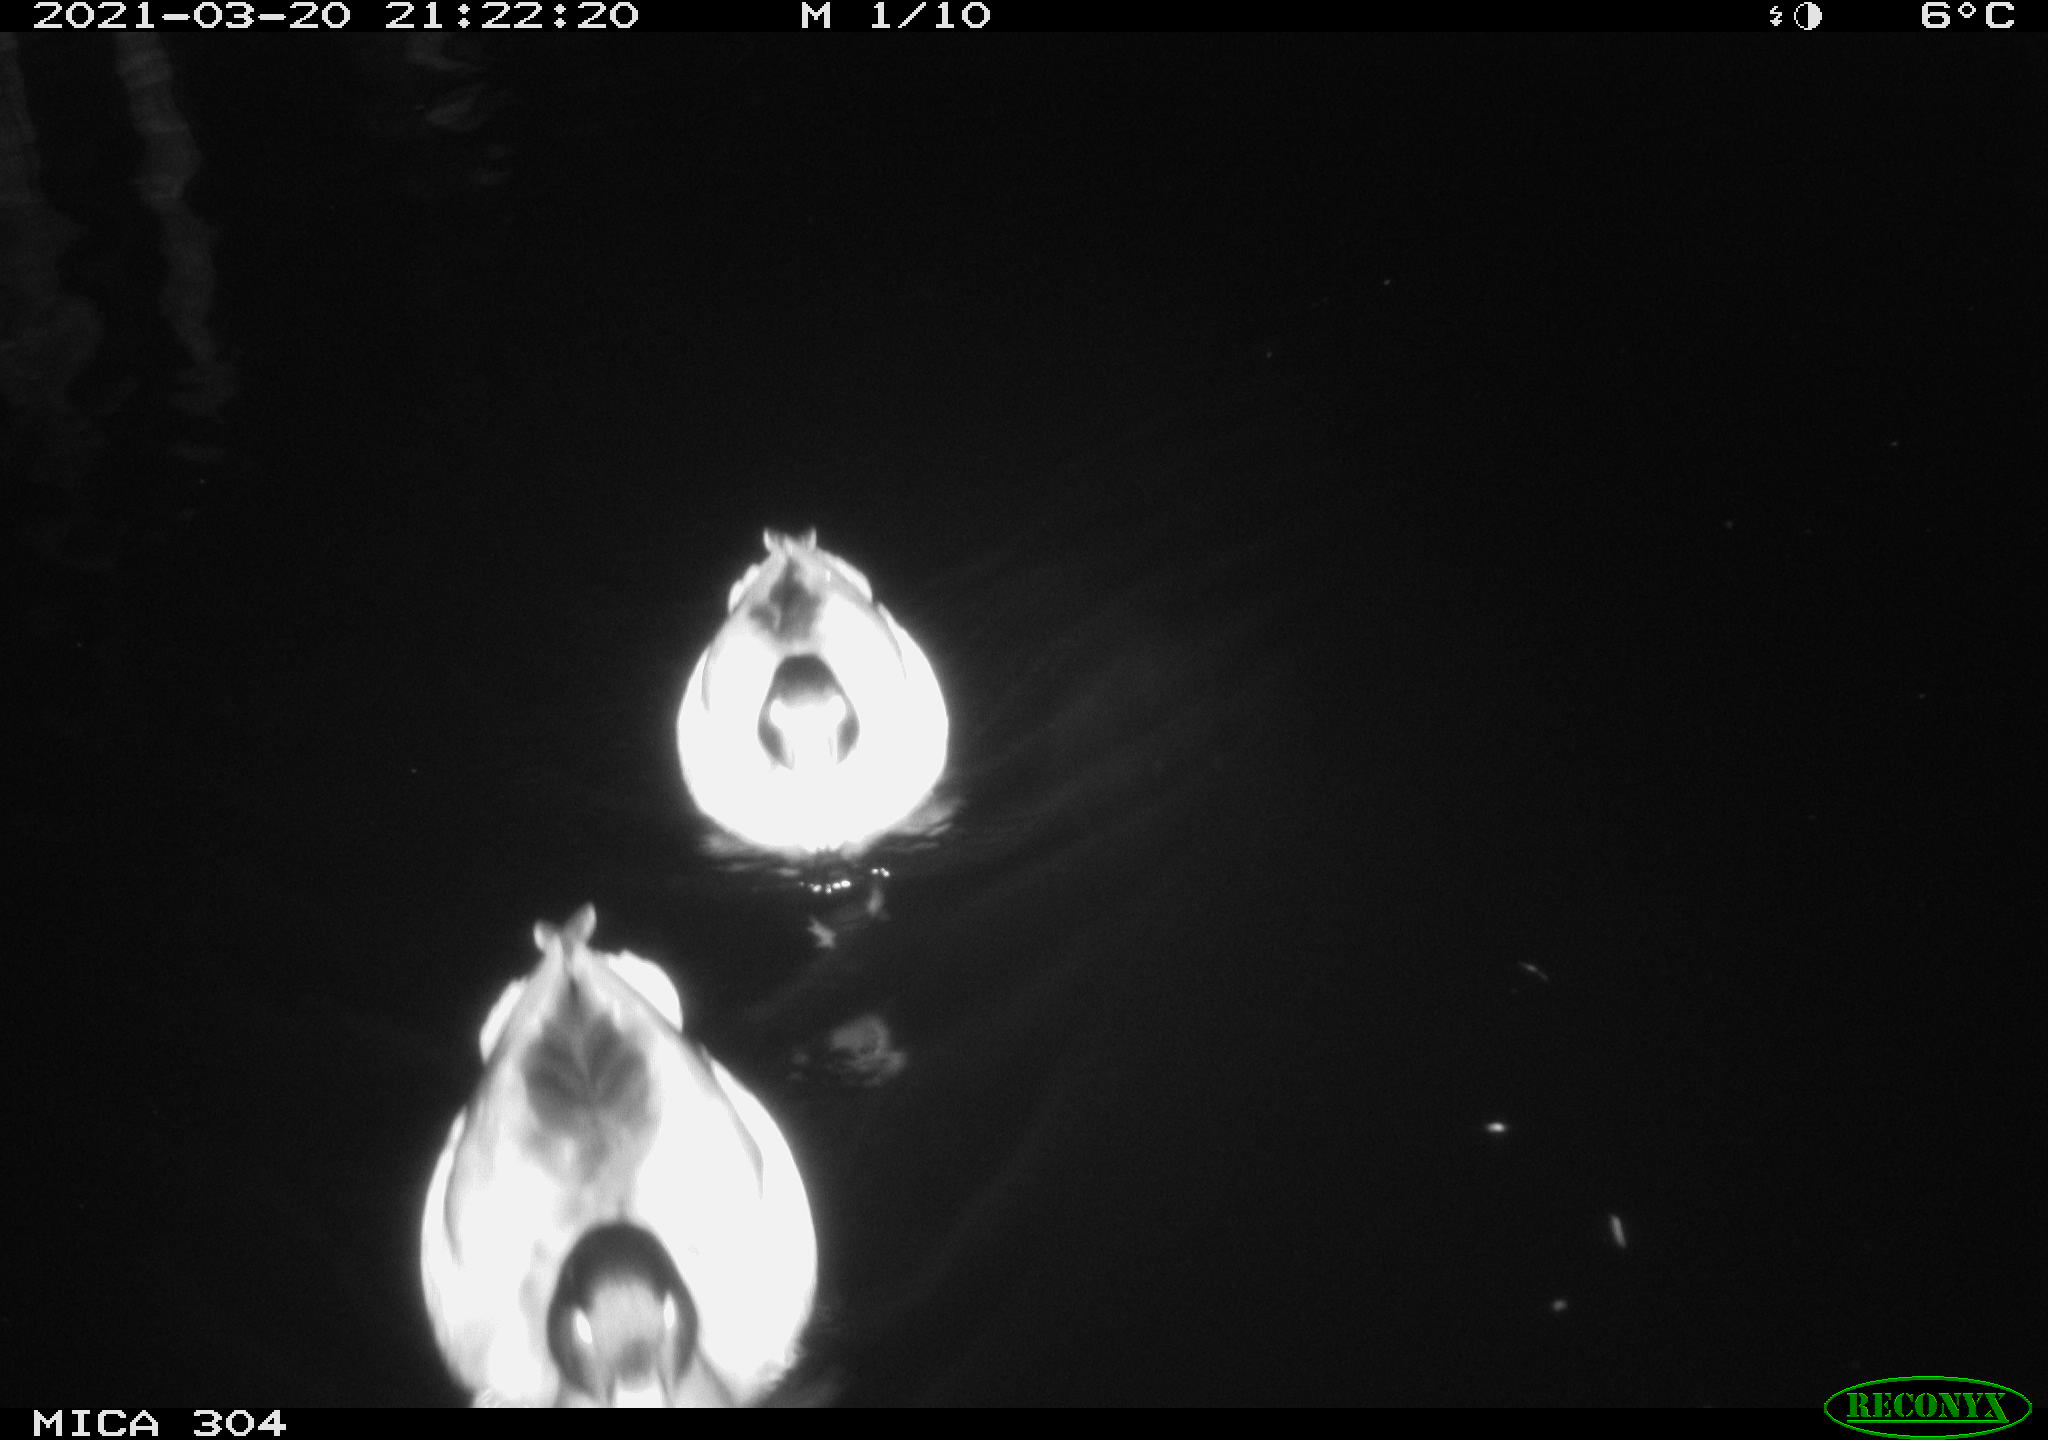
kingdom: Animalia
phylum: Chordata
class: Aves
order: Anseriformes
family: Anatidae
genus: Anas
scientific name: Anas platyrhynchos
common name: Mallard
